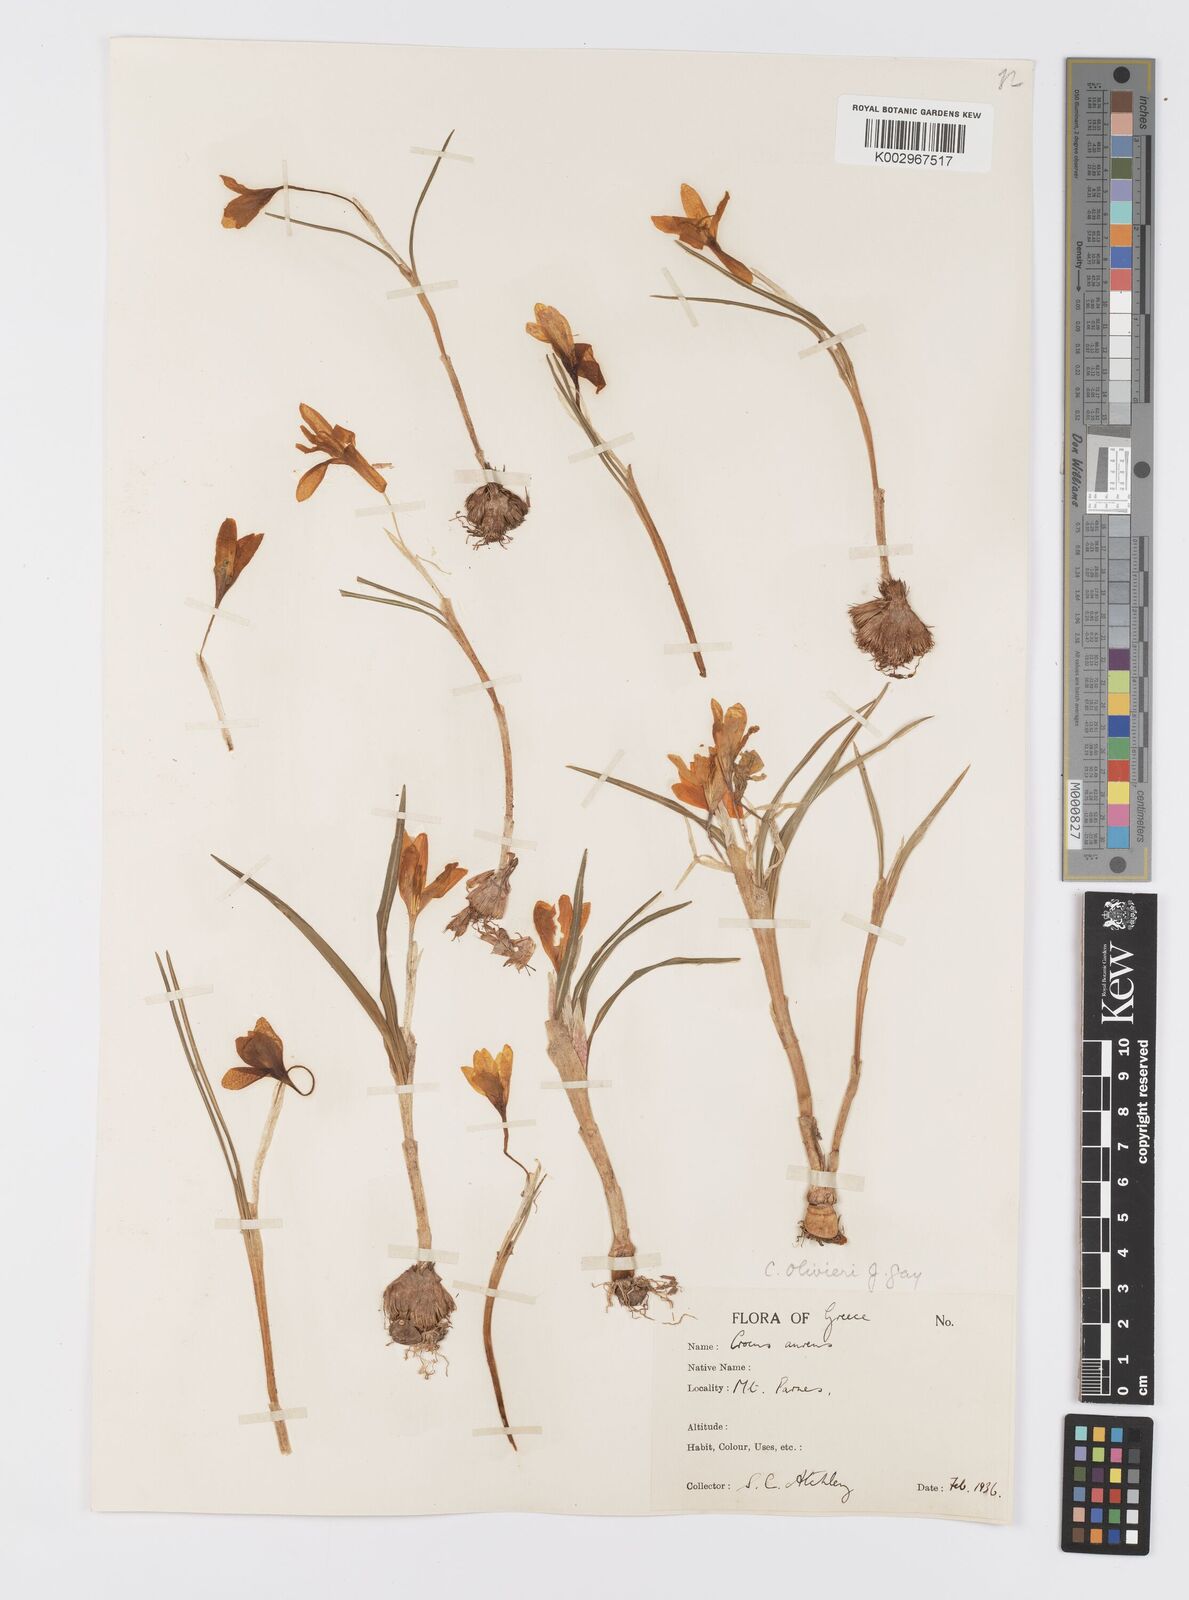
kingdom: Plantae
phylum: Tracheophyta
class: Liliopsida
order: Asparagales
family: Iridaceae
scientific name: Iridaceae
